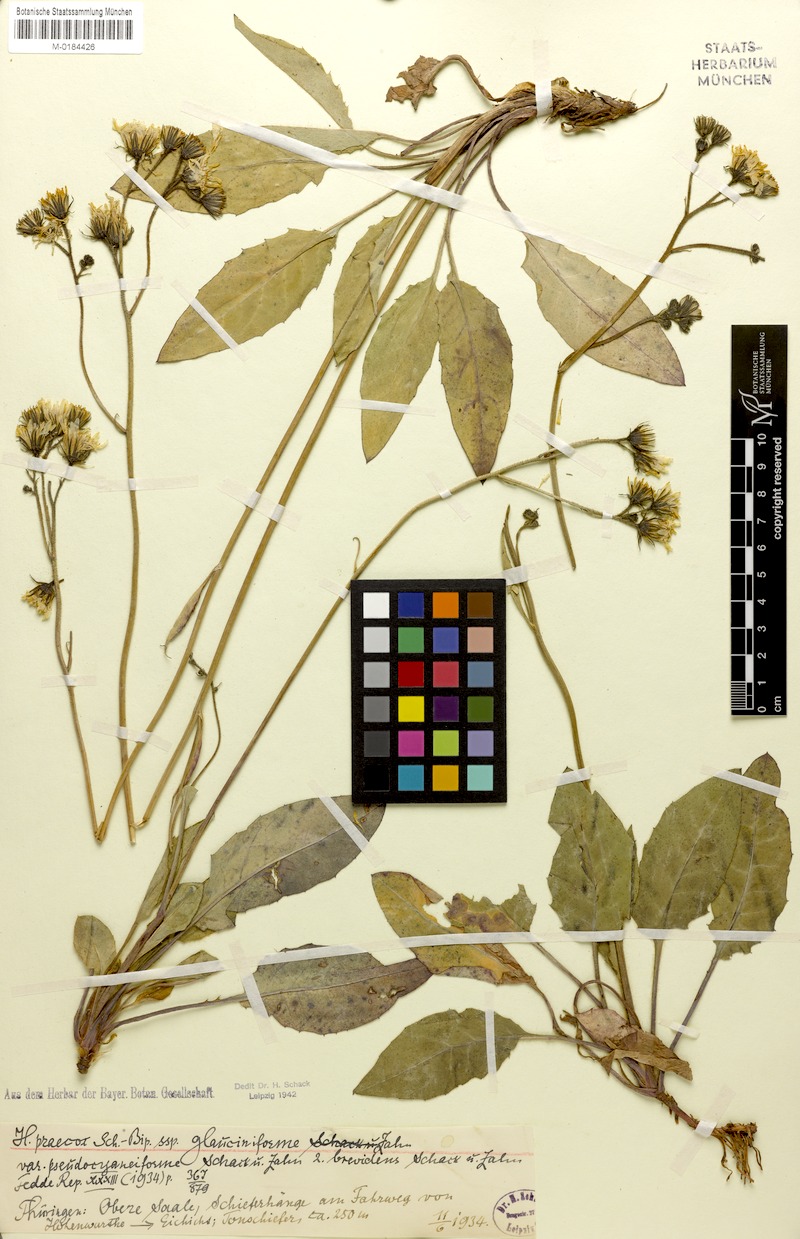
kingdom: Plantae
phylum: Tracheophyta
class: Magnoliopsida
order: Asterales
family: Asteraceae
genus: Hieracium
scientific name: Hieracium glaucinum
